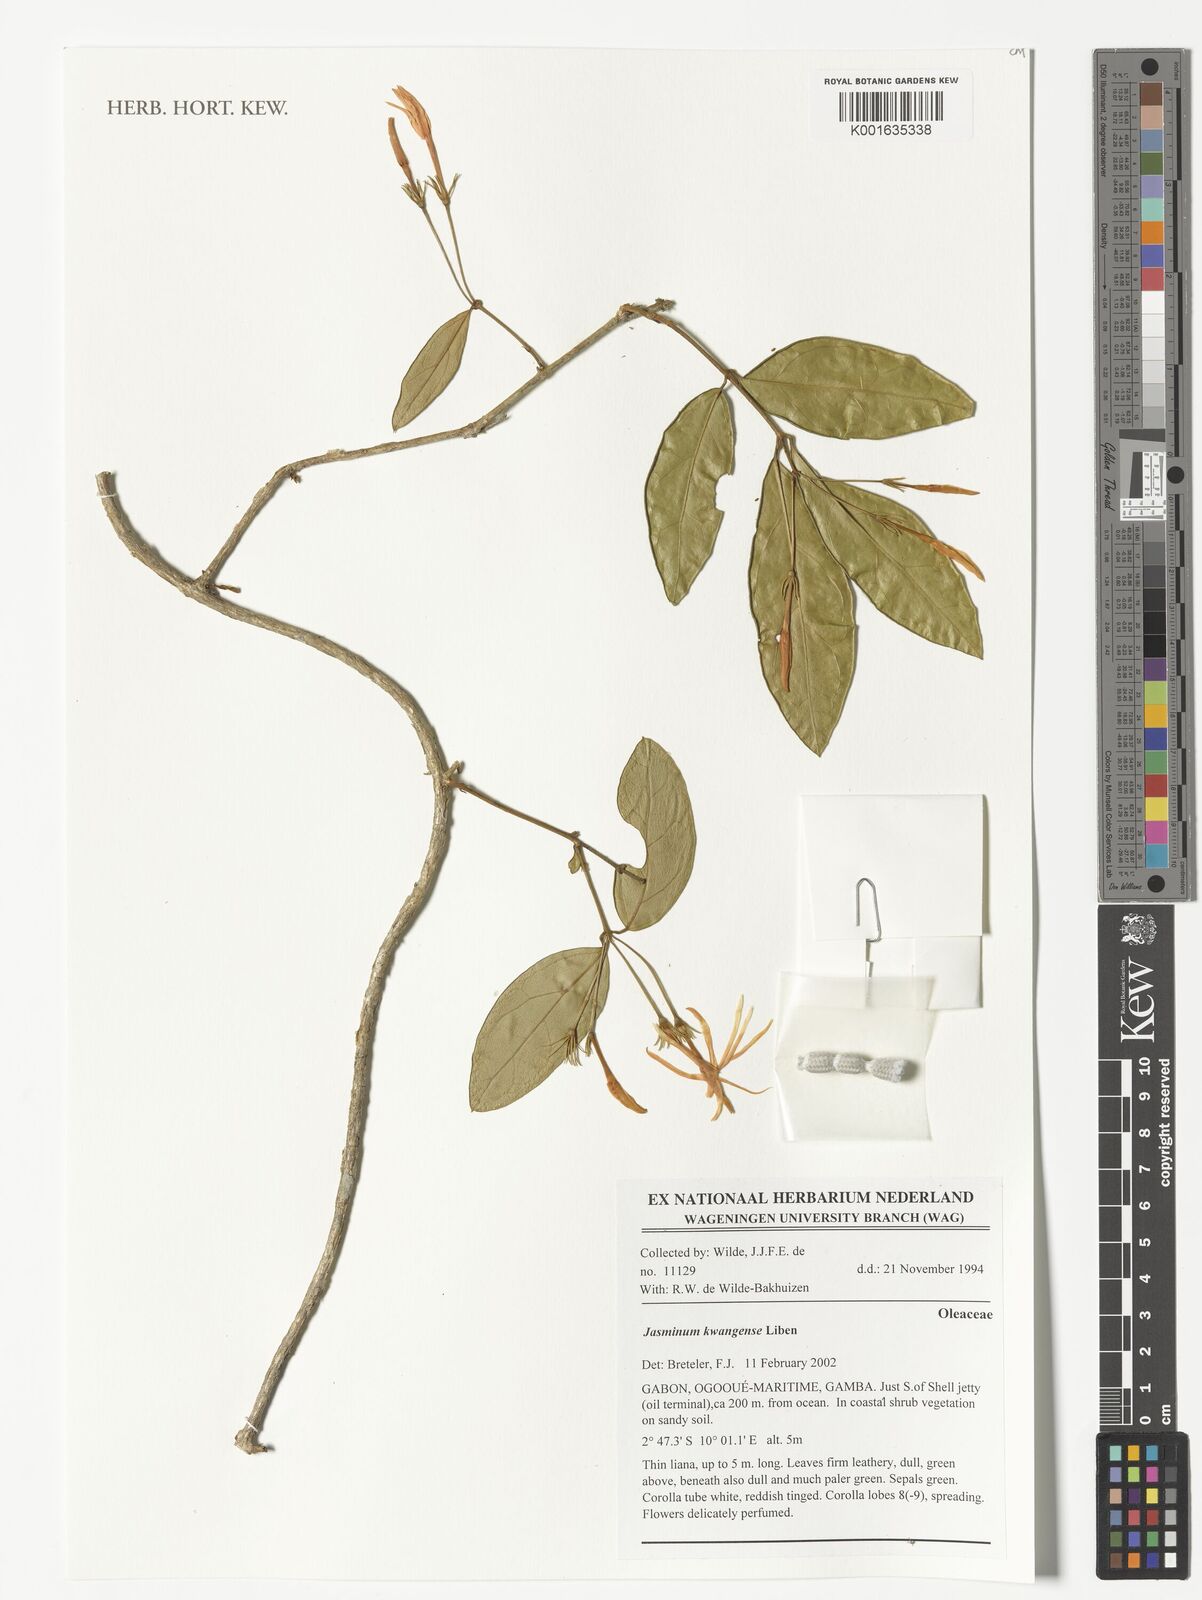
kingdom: Plantae
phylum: Tracheophyta
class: Magnoliopsida
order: Lamiales
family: Oleaceae
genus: Jasminum
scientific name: Jasminum kwangense
